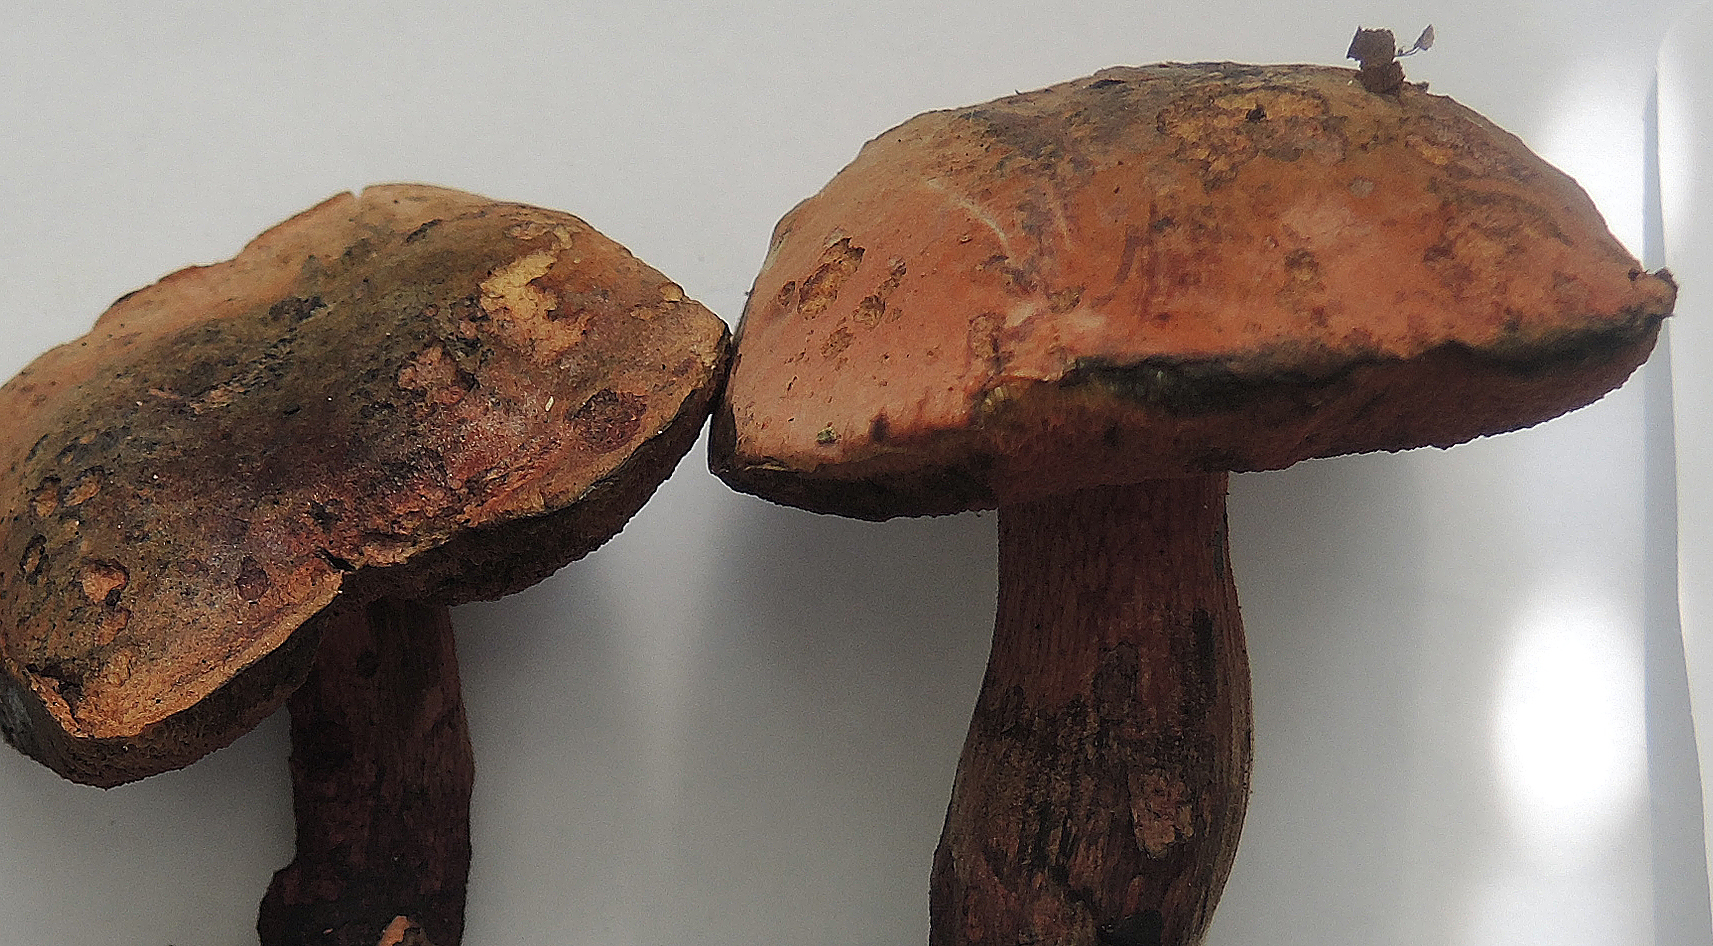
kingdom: Fungi
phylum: Basidiomycota
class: Agaricomycetes
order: Boletales
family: Boletaceae
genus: Suillellus
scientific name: Suillellus mendax
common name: joker-indigorørhat
